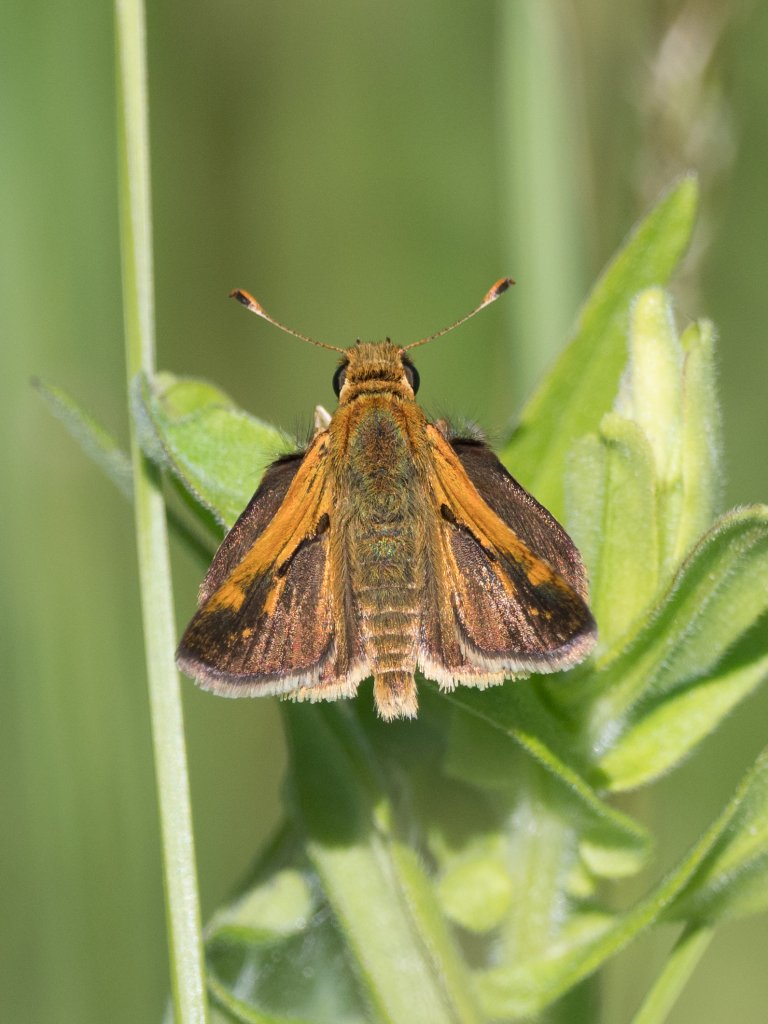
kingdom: Animalia
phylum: Arthropoda
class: Insecta
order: Lepidoptera
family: Hesperiidae
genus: Polites
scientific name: Polites themistocles
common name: Tawny-edged Skipper
